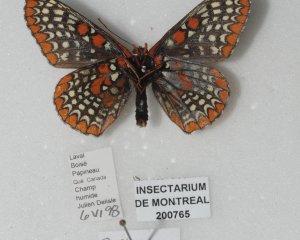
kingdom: Animalia
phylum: Arthropoda
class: Insecta
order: Lepidoptera
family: Nymphalidae
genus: Euphydryas
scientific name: Euphydryas phaeton
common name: Baltimore Checkerspot
